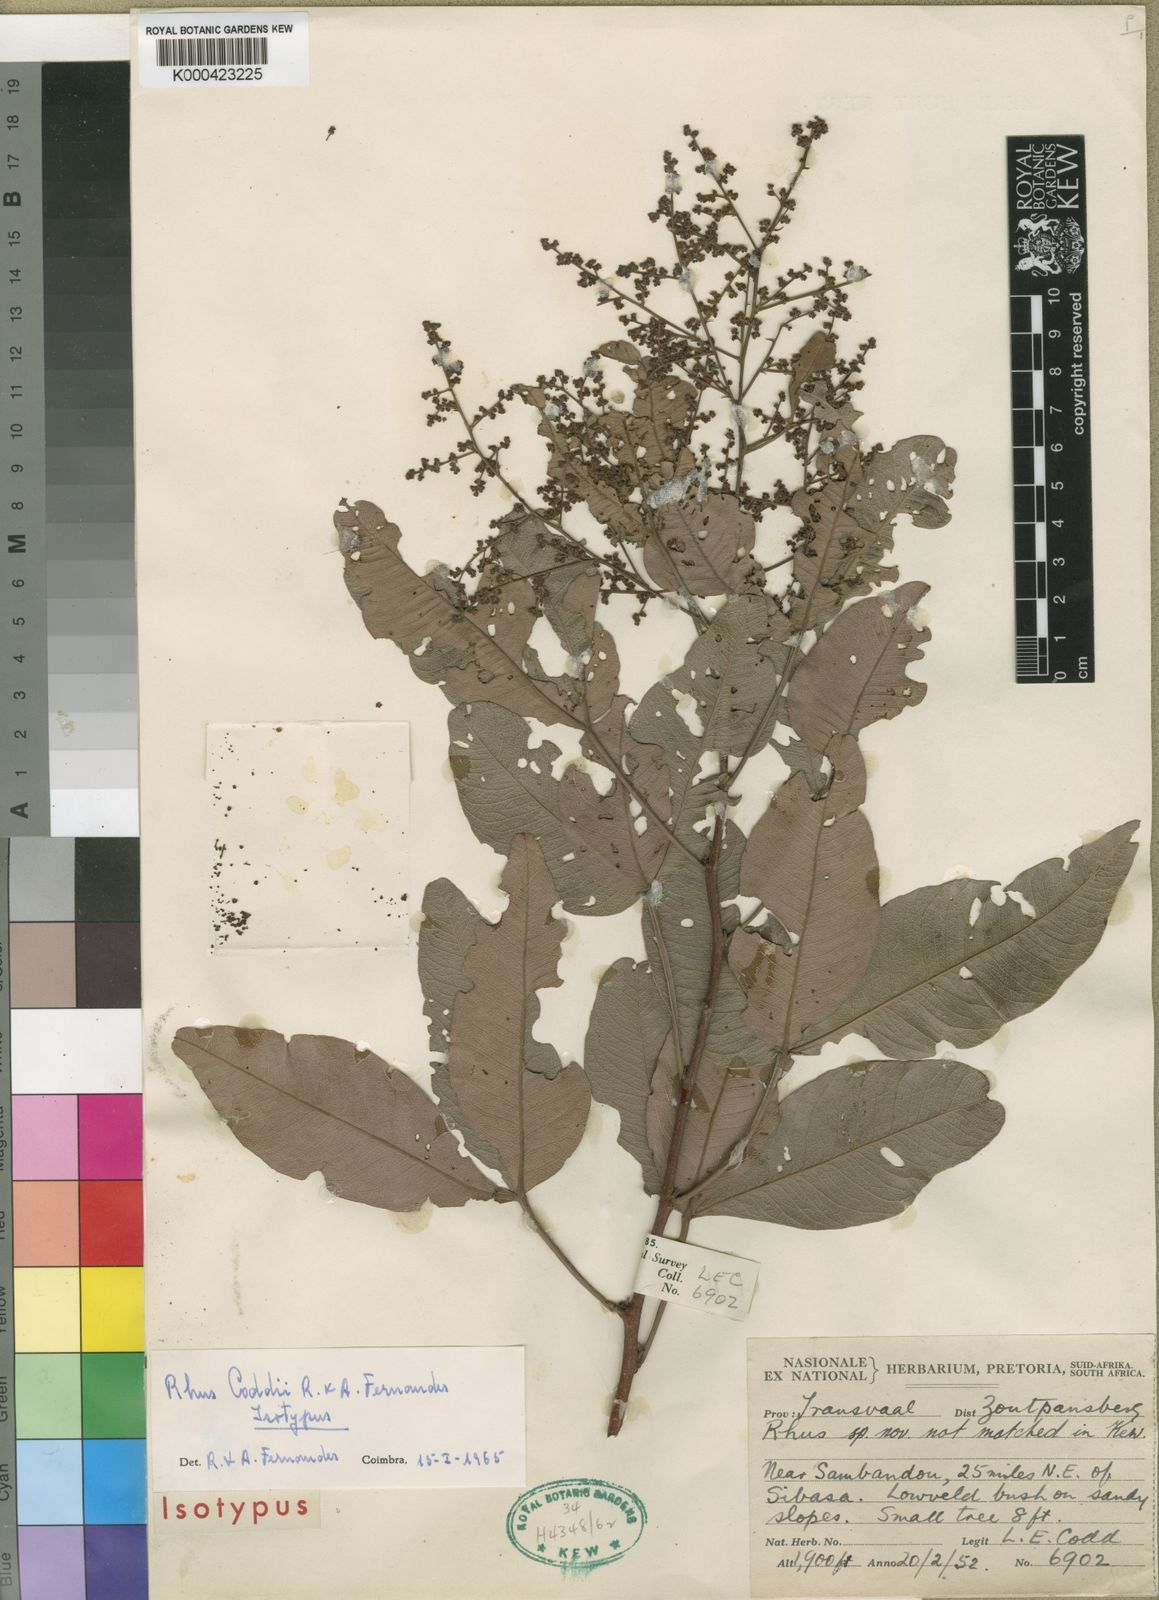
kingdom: Plantae
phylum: Tracheophyta
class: Magnoliopsida
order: Sapindales
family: Anacardiaceae
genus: Searsia
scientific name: Searsia magalismontana
